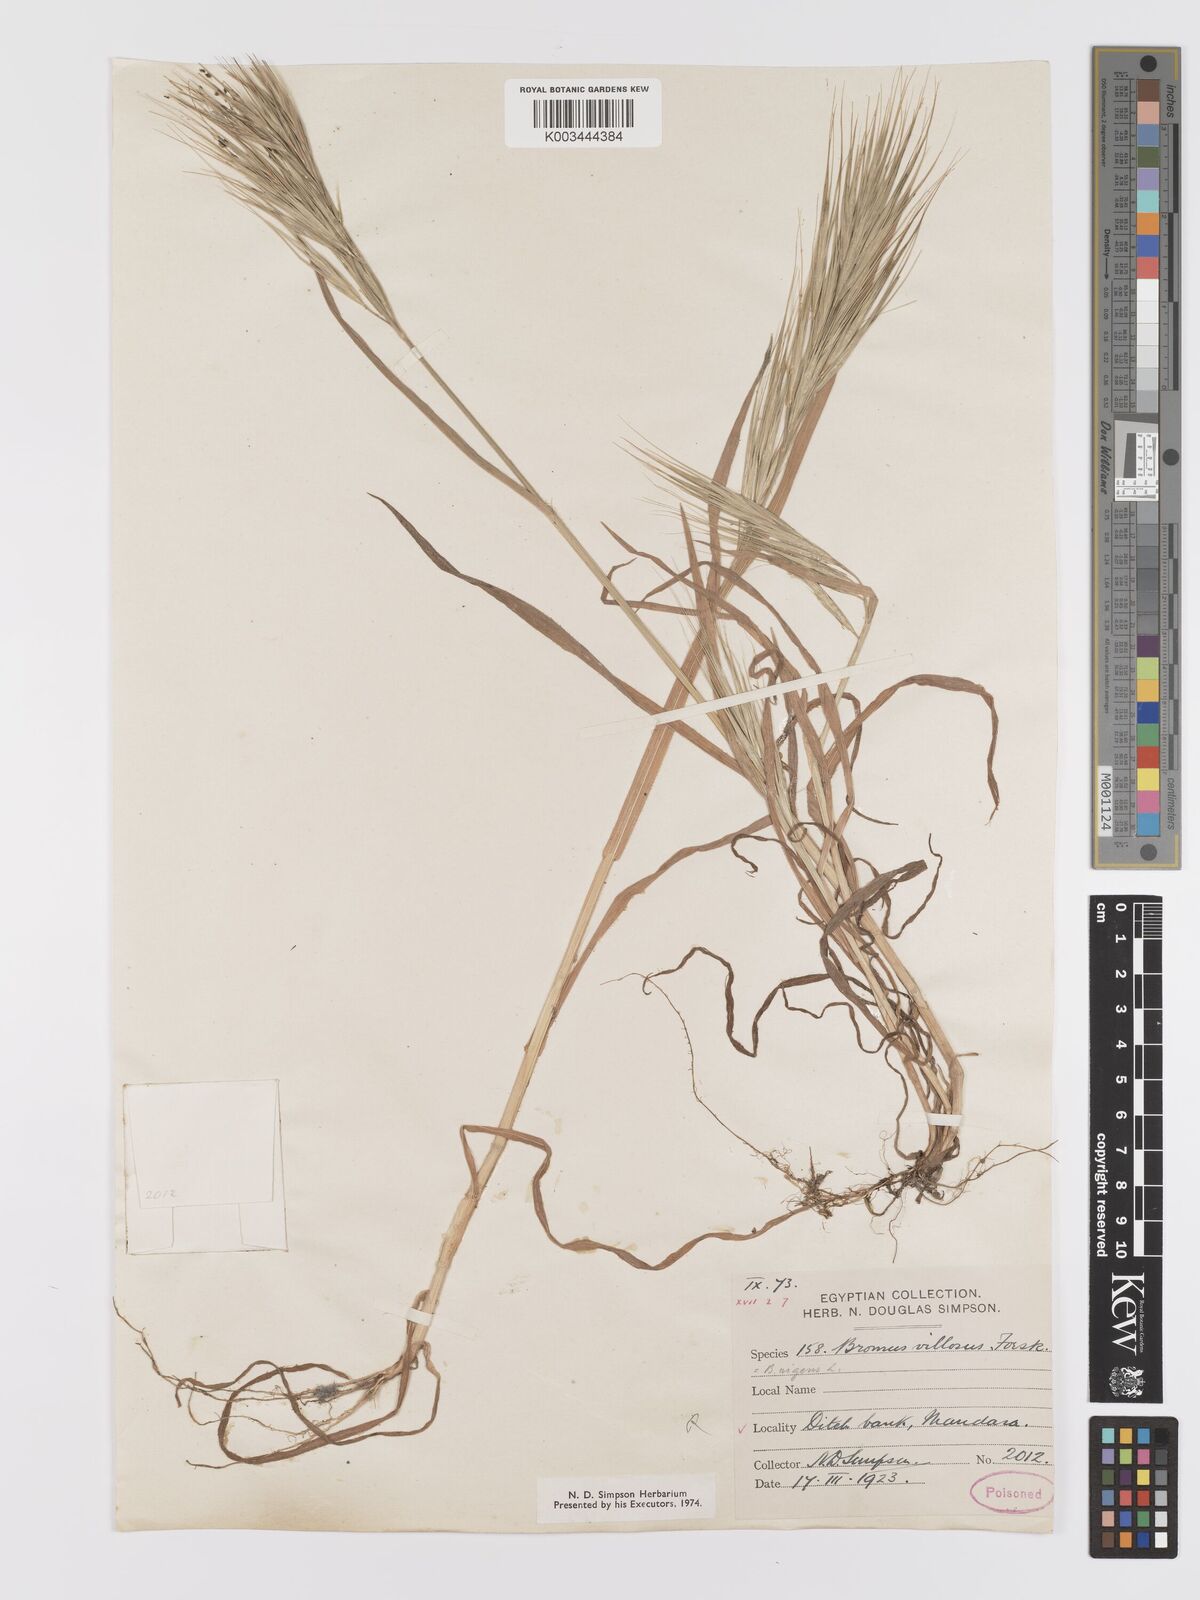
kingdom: Plantae
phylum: Tracheophyta
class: Liliopsida
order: Poales
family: Poaceae
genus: Bromus
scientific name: Bromus
